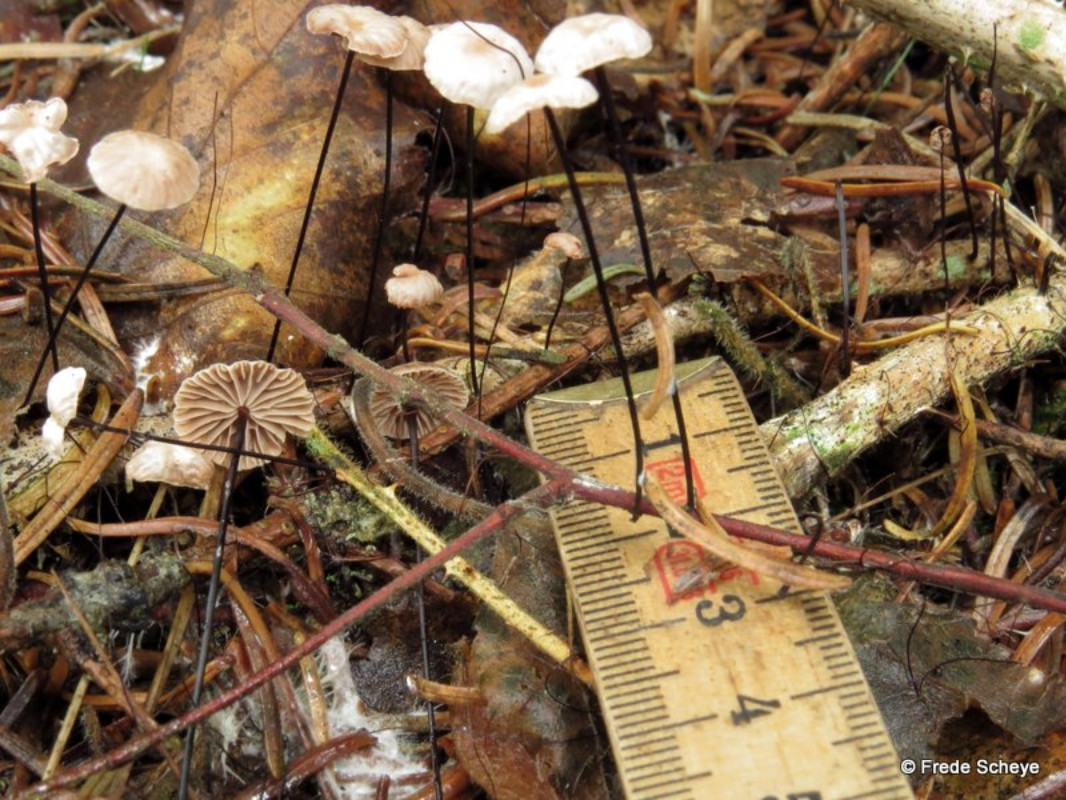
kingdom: Fungi
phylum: Basidiomycota
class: Agaricomycetes
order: Agaricales
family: Omphalotaceae
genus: Gymnopus
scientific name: Gymnopus androsaceus
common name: trådstokket fladhat
